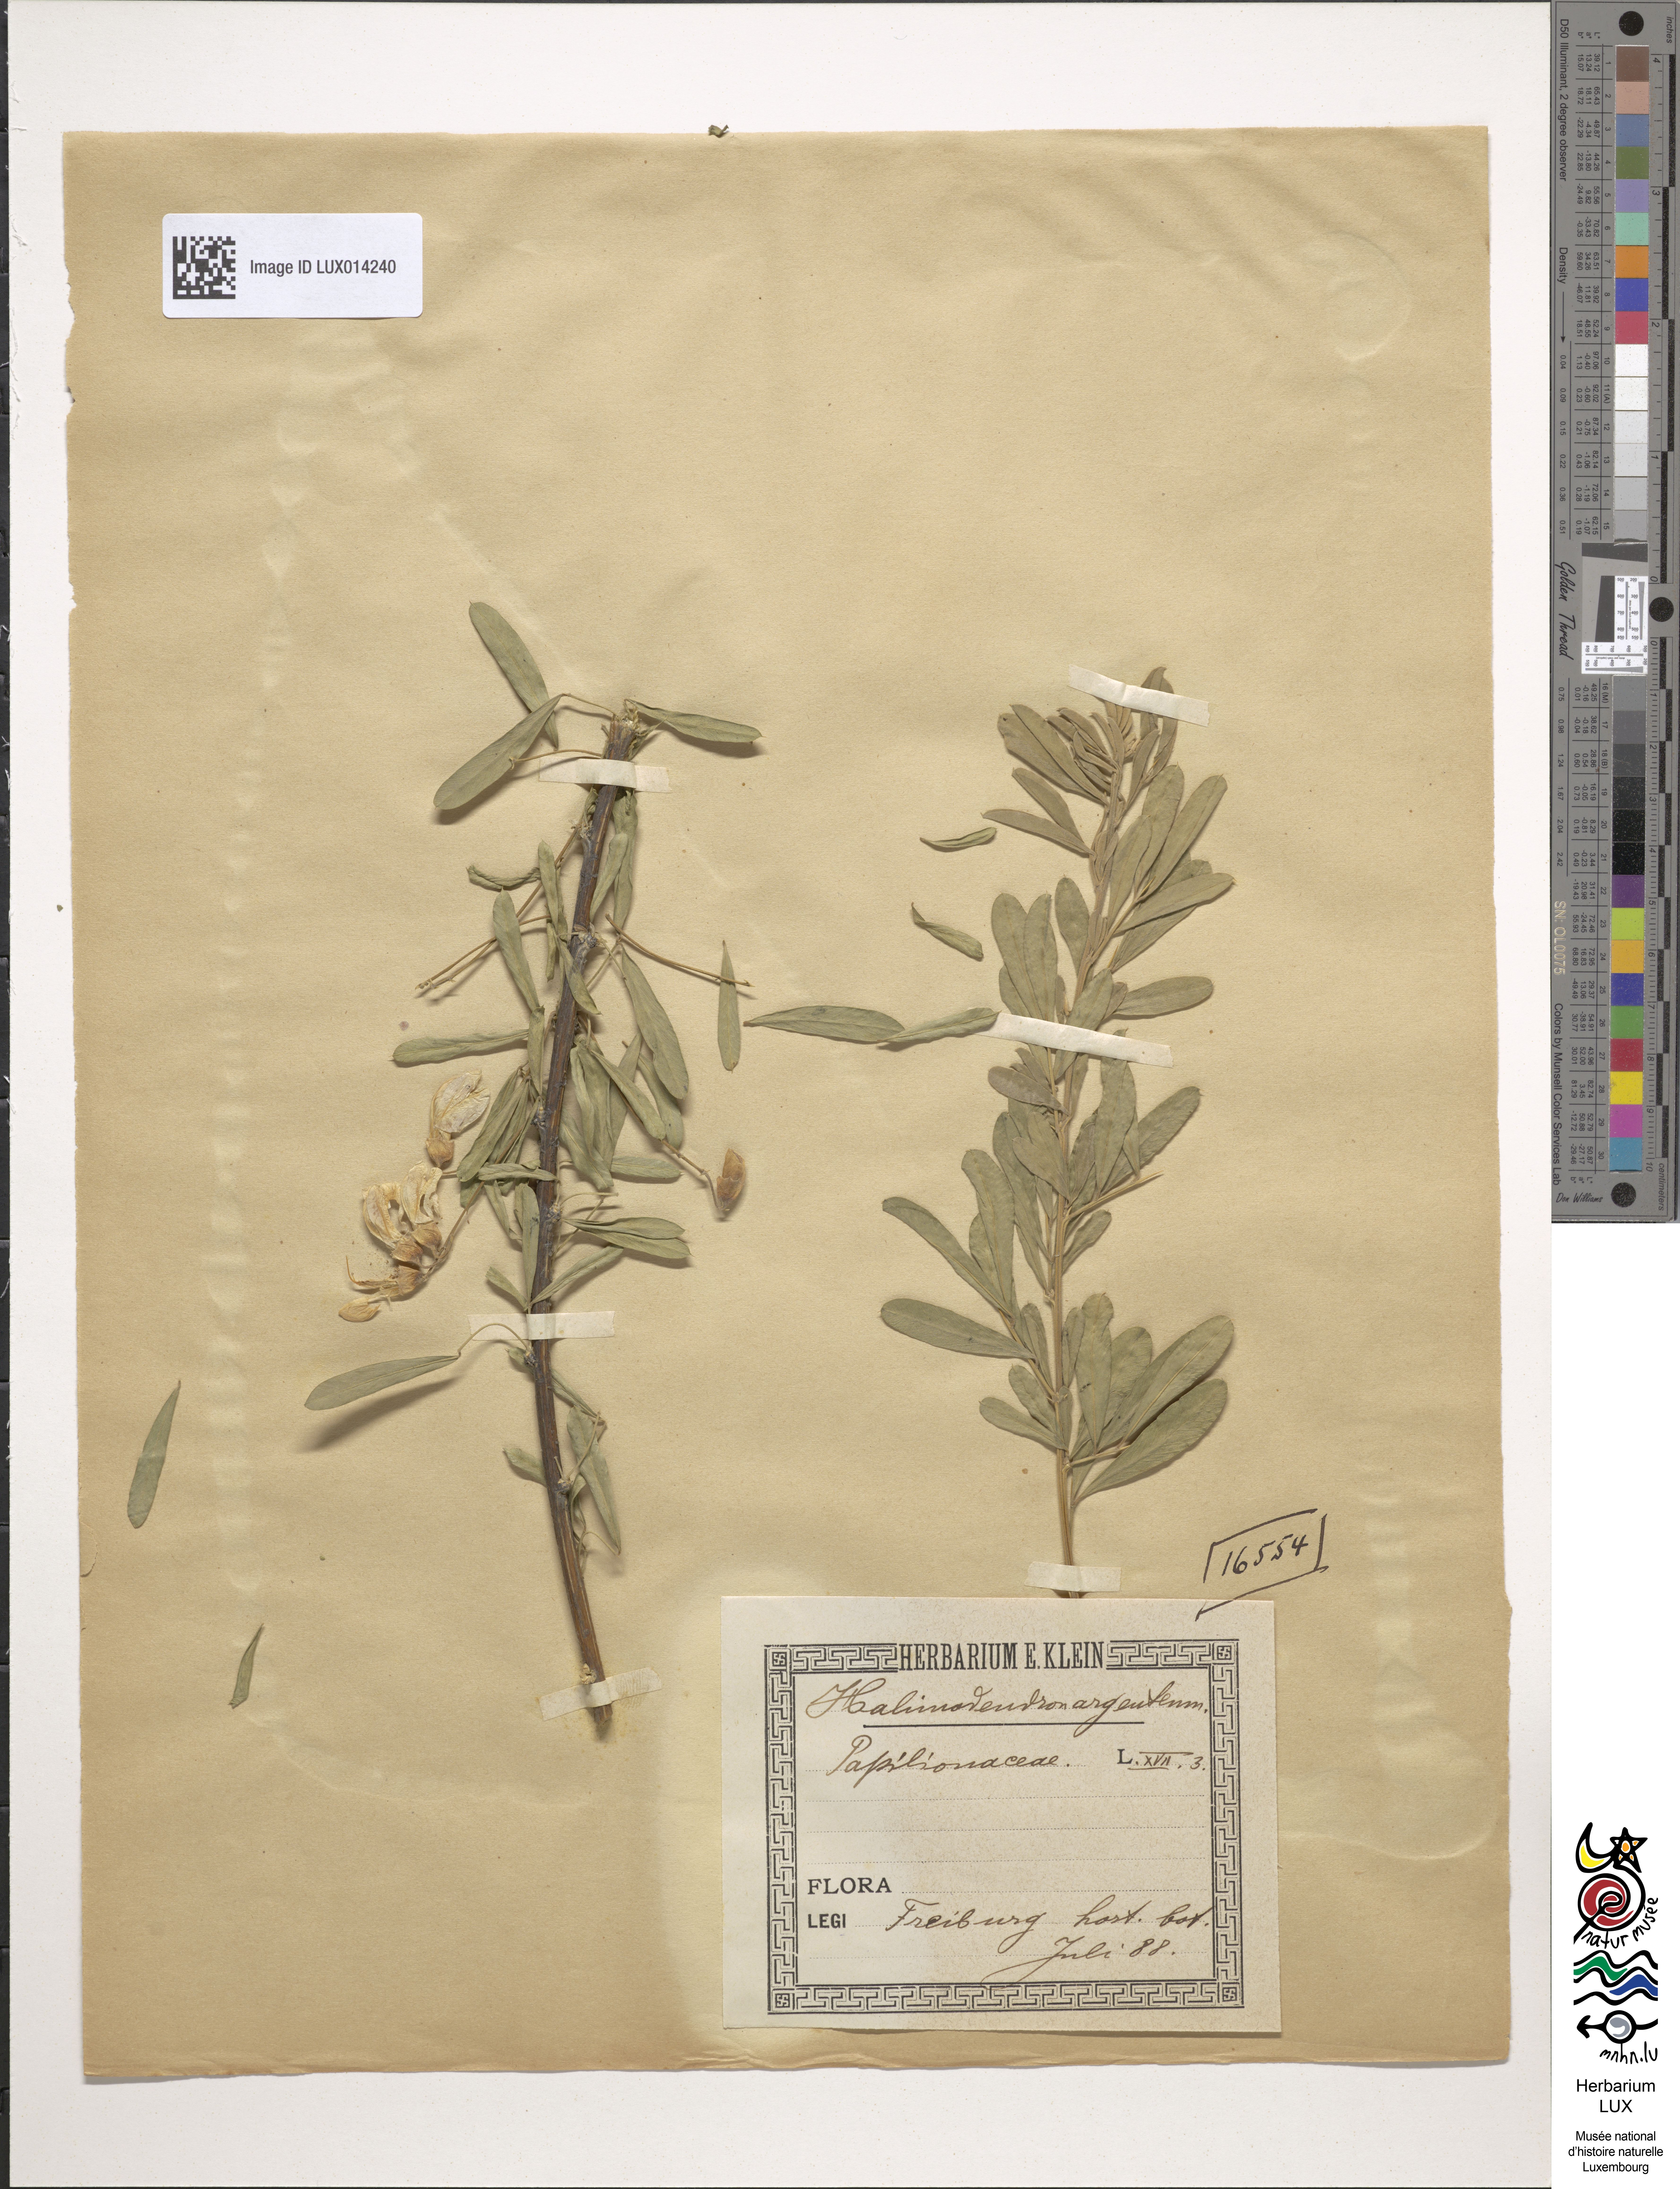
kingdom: Plantae
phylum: Tracheophyta
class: Magnoliopsida
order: Fabales
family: Fabaceae
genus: Caragana
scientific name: Caragana halodendron
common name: Siberian salt-tree
